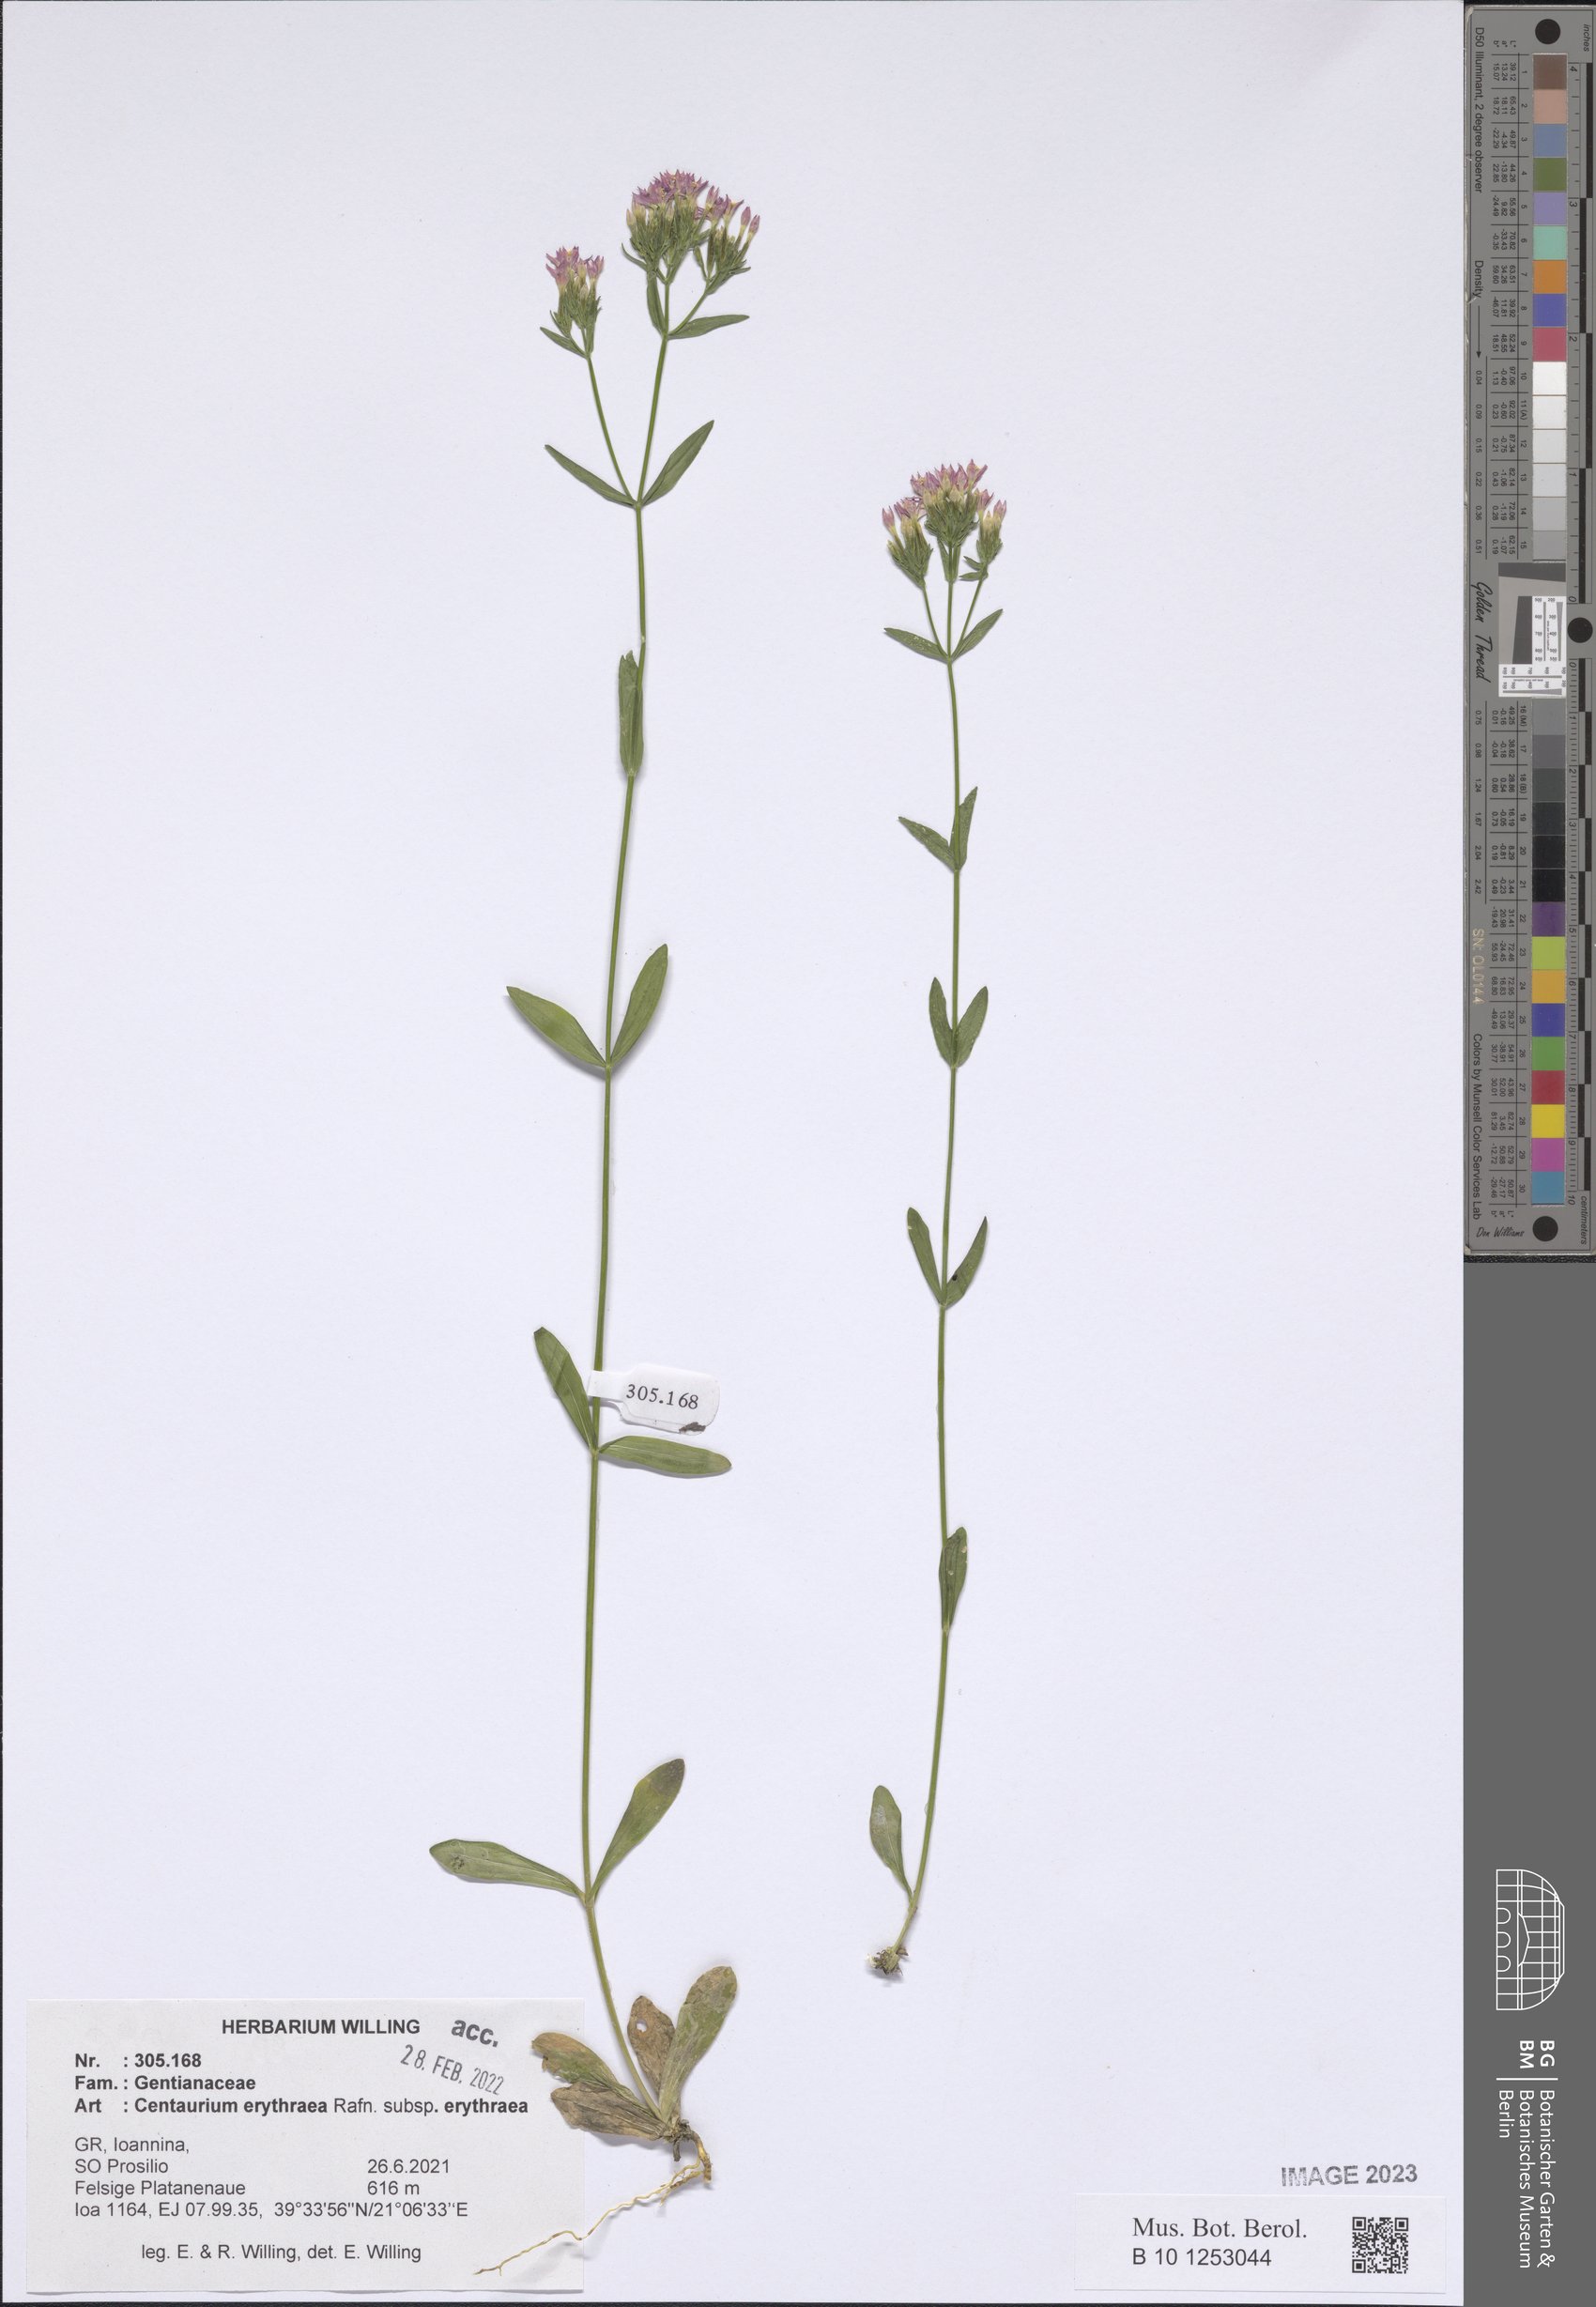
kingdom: Plantae
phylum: Tracheophyta
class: Magnoliopsida
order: Gentianales
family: Gentianaceae
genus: Centaurium
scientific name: Centaurium erythraea
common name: Common centaury
